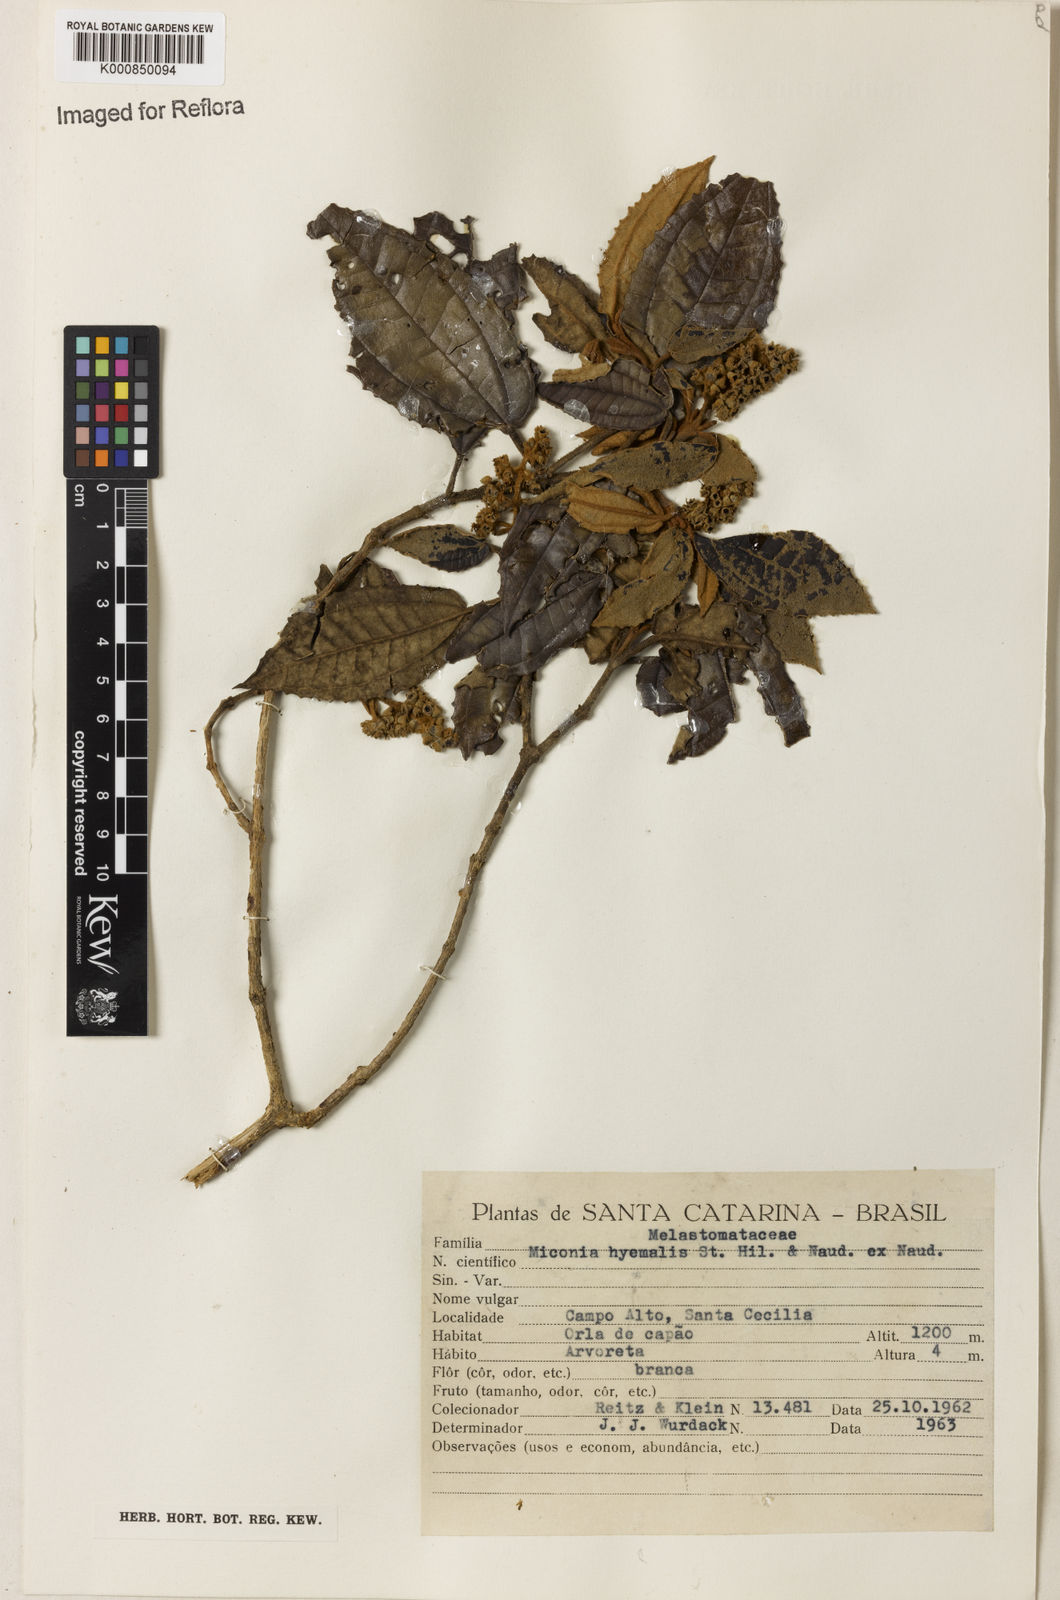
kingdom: Plantae
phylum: Tracheophyta
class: Magnoliopsida
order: Myrtales
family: Melastomataceae
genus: Miconia
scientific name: Miconia hyemalis
